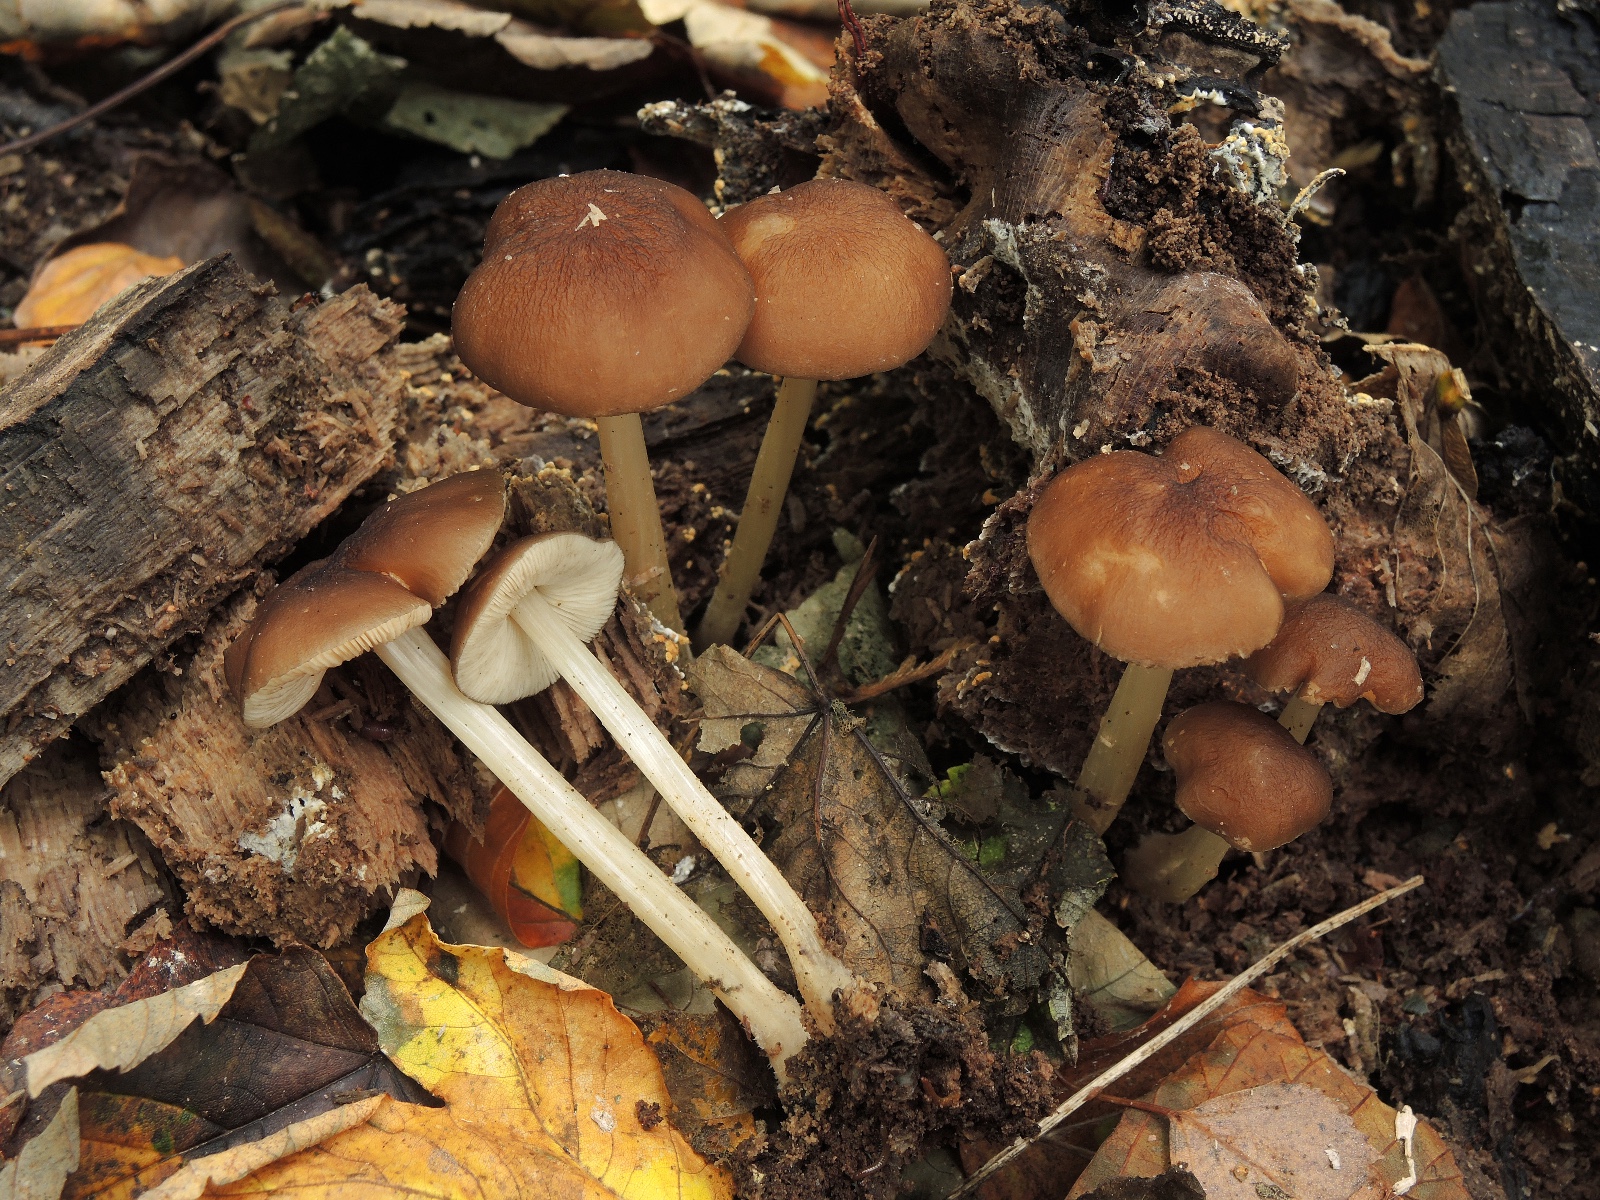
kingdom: Fungi
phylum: Basidiomycota
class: Agaricomycetes
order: Agaricales
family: Pluteaceae
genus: Pluteus
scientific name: Pluteus phlebophorus
